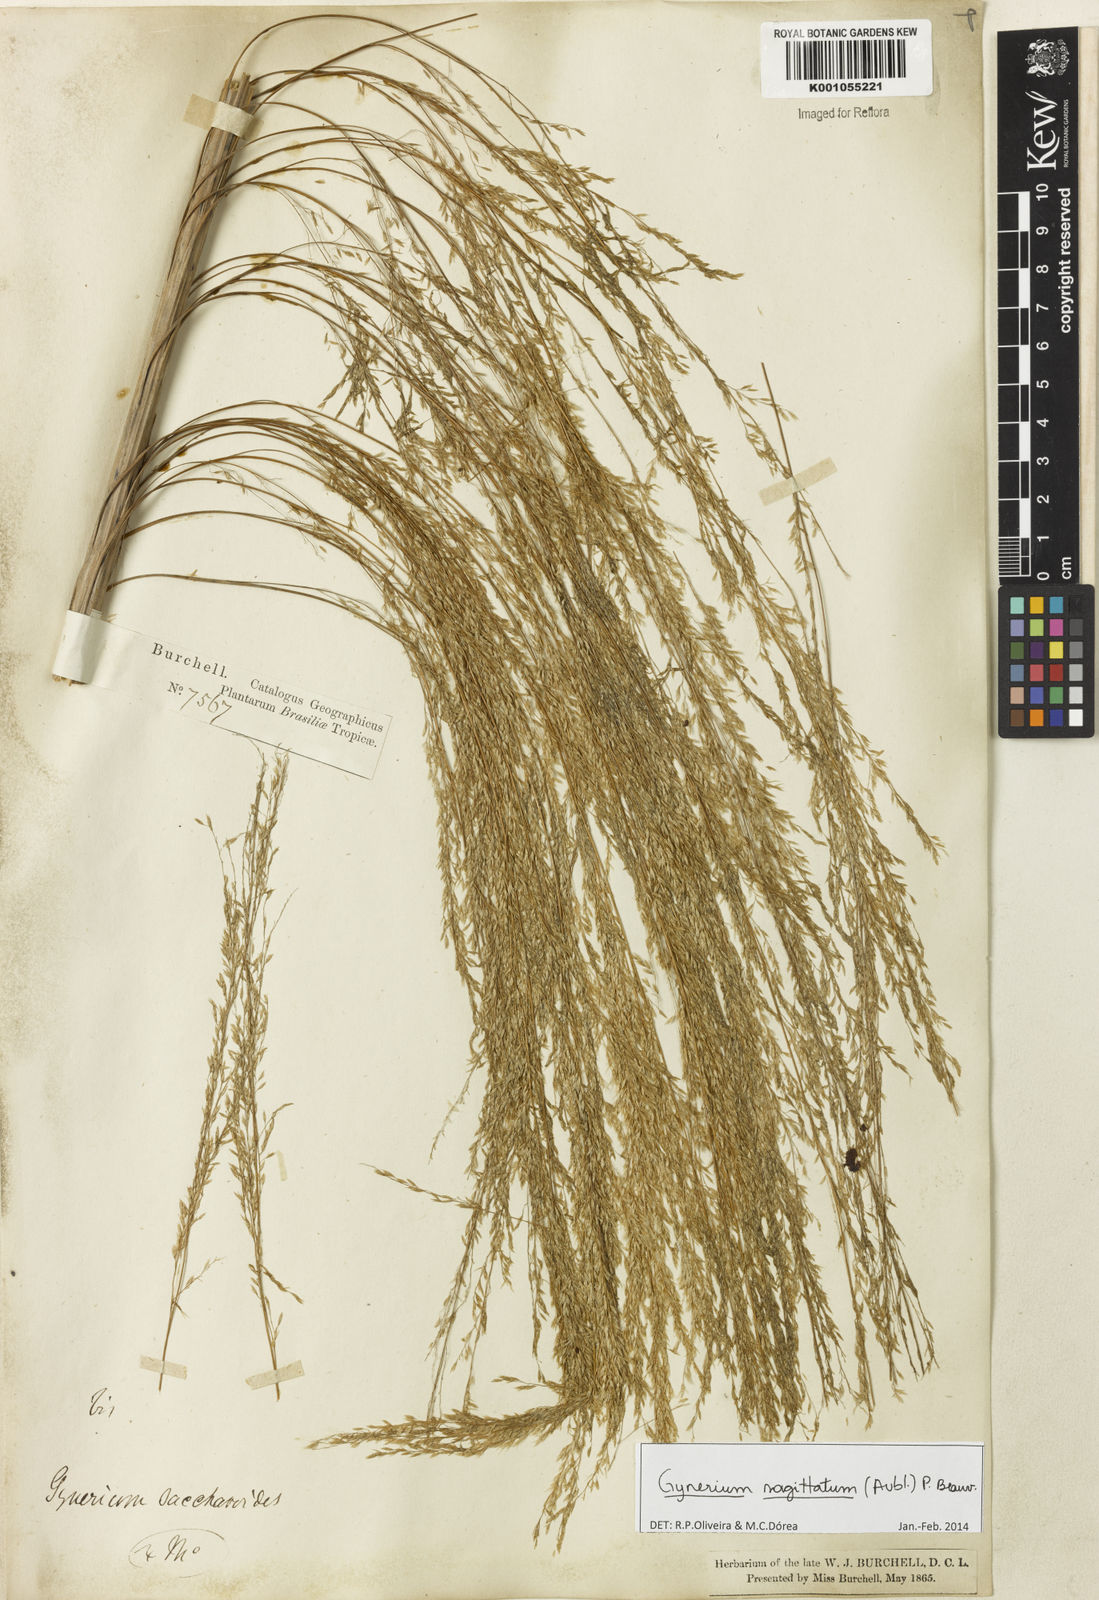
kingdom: Plantae
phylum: Tracheophyta
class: Liliopsida
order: Poales
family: Poaceae
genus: Gynerium
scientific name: Gynerium sagittatum
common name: Wild cane
